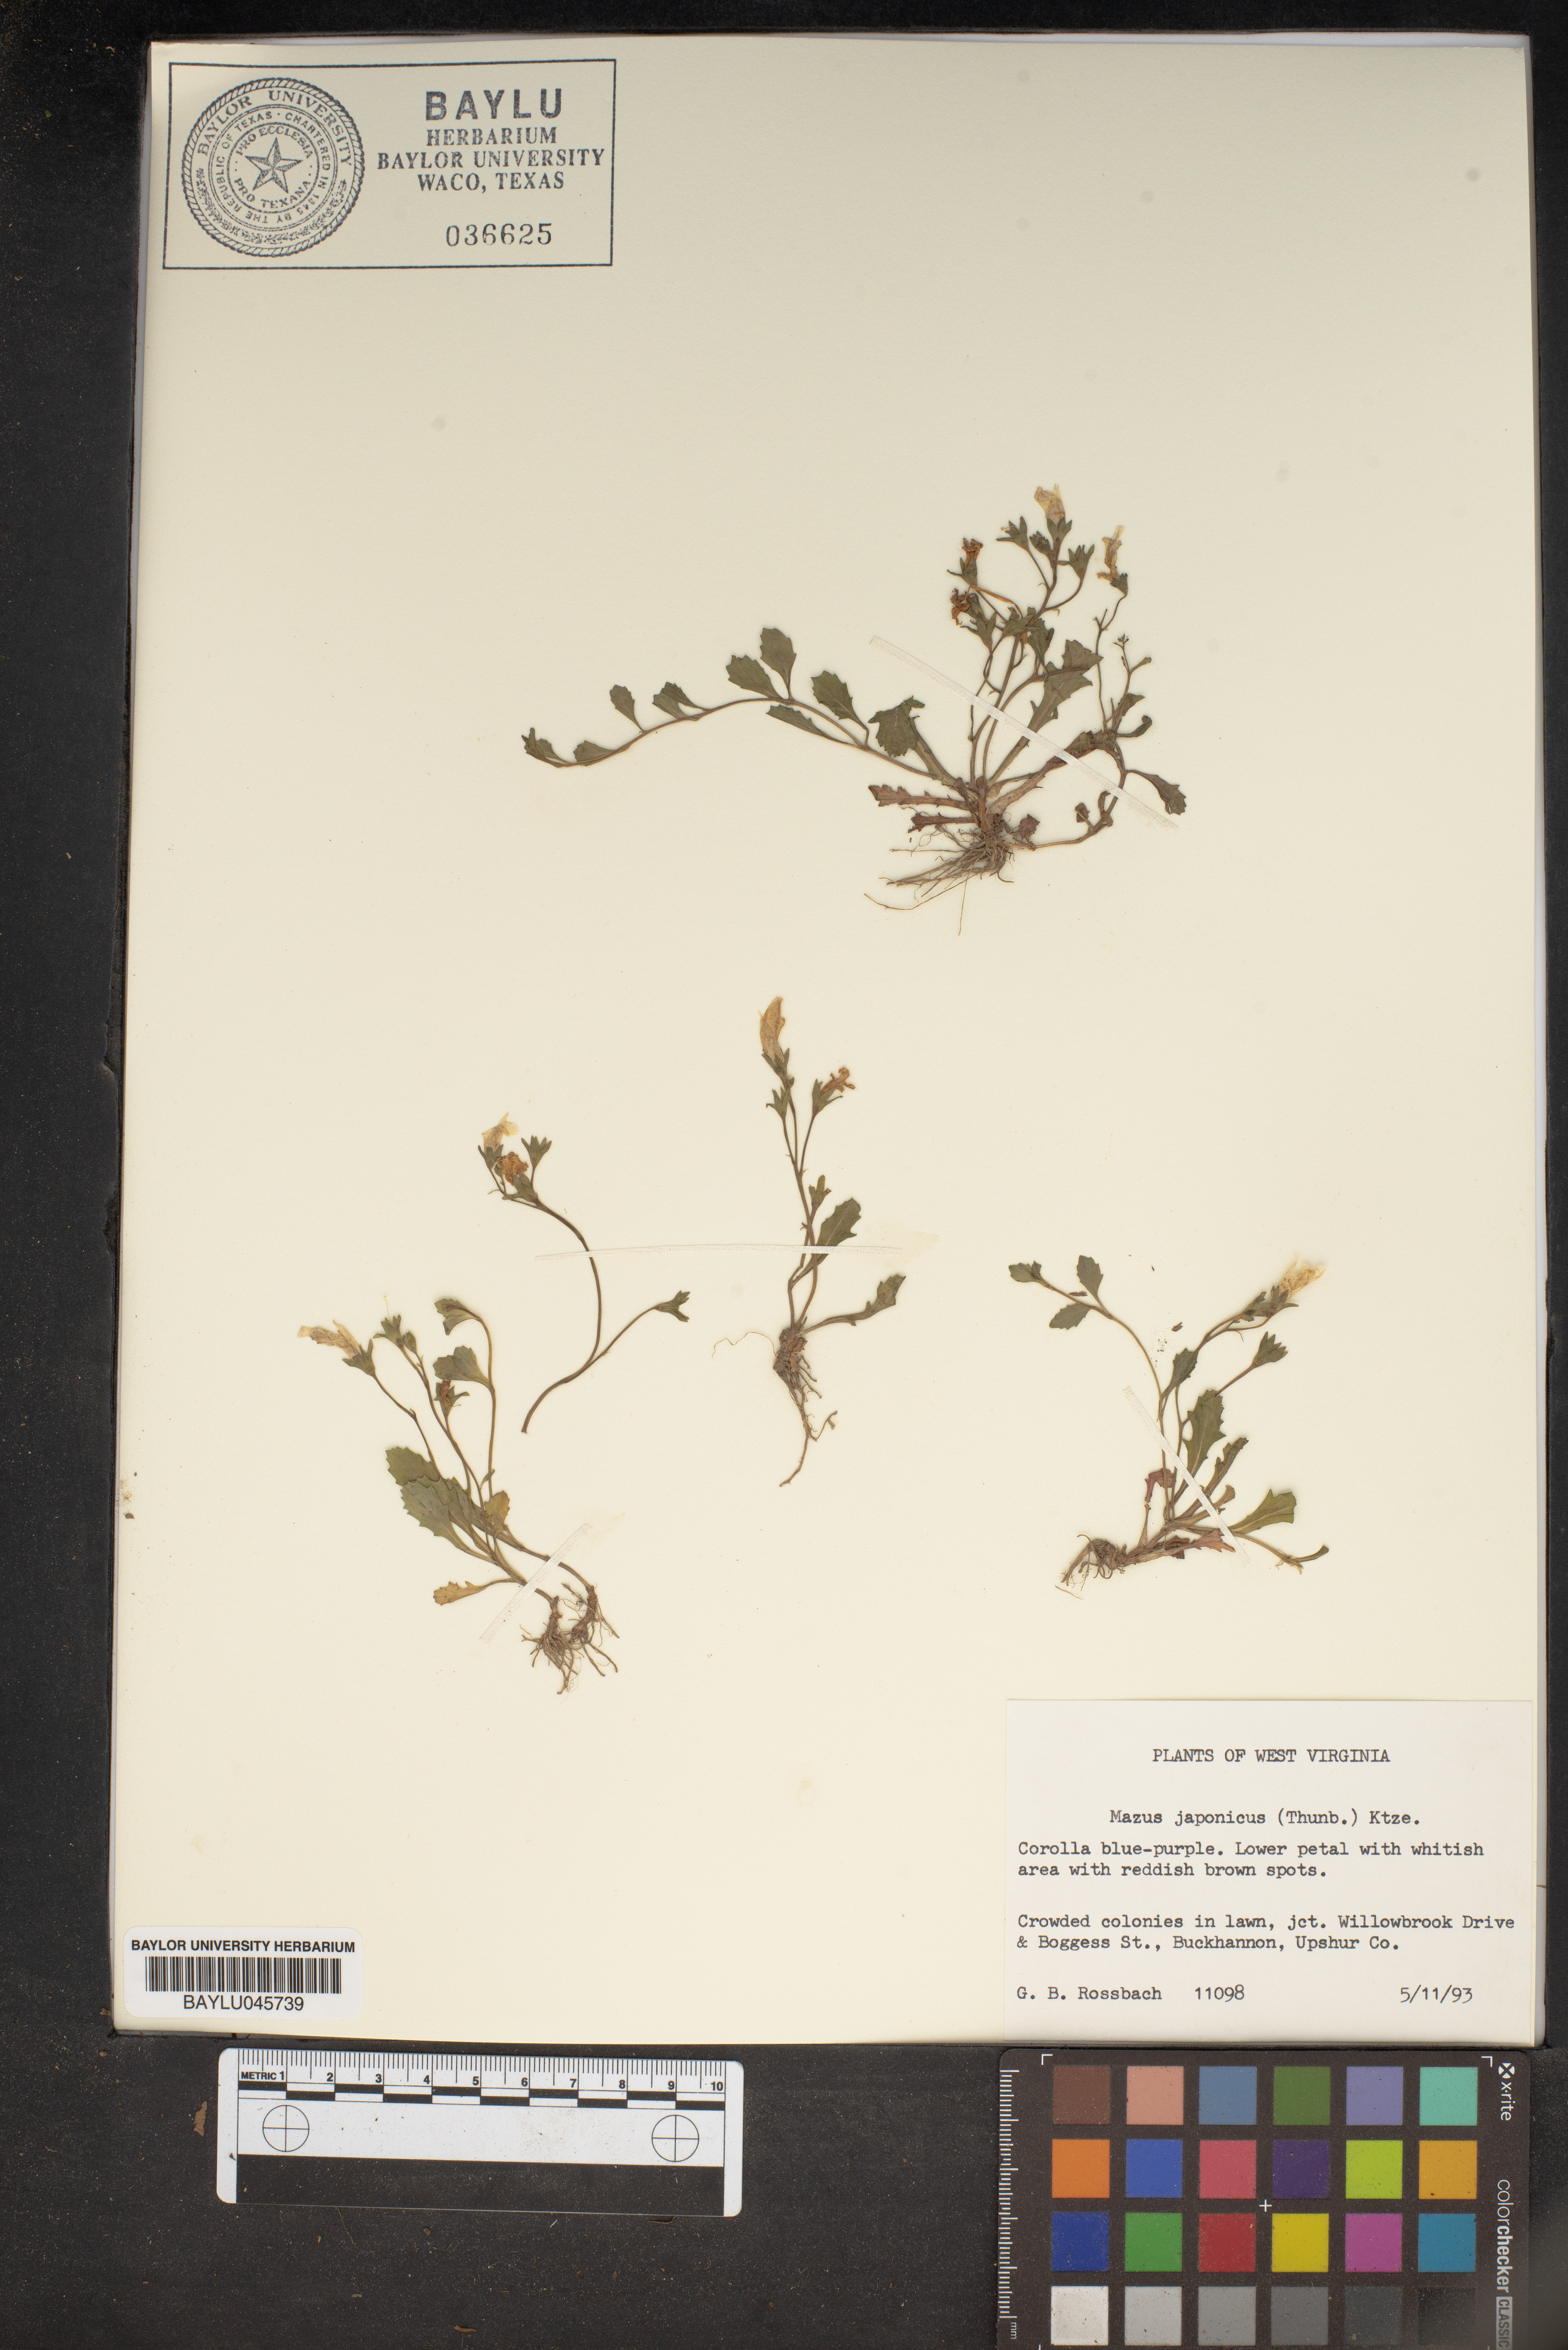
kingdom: Plantae
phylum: Tracheophyta
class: Magnoliopsida
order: Lamiales
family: Mazaceae
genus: Mazus
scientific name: Mazus pumilus
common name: Japanese mazus
